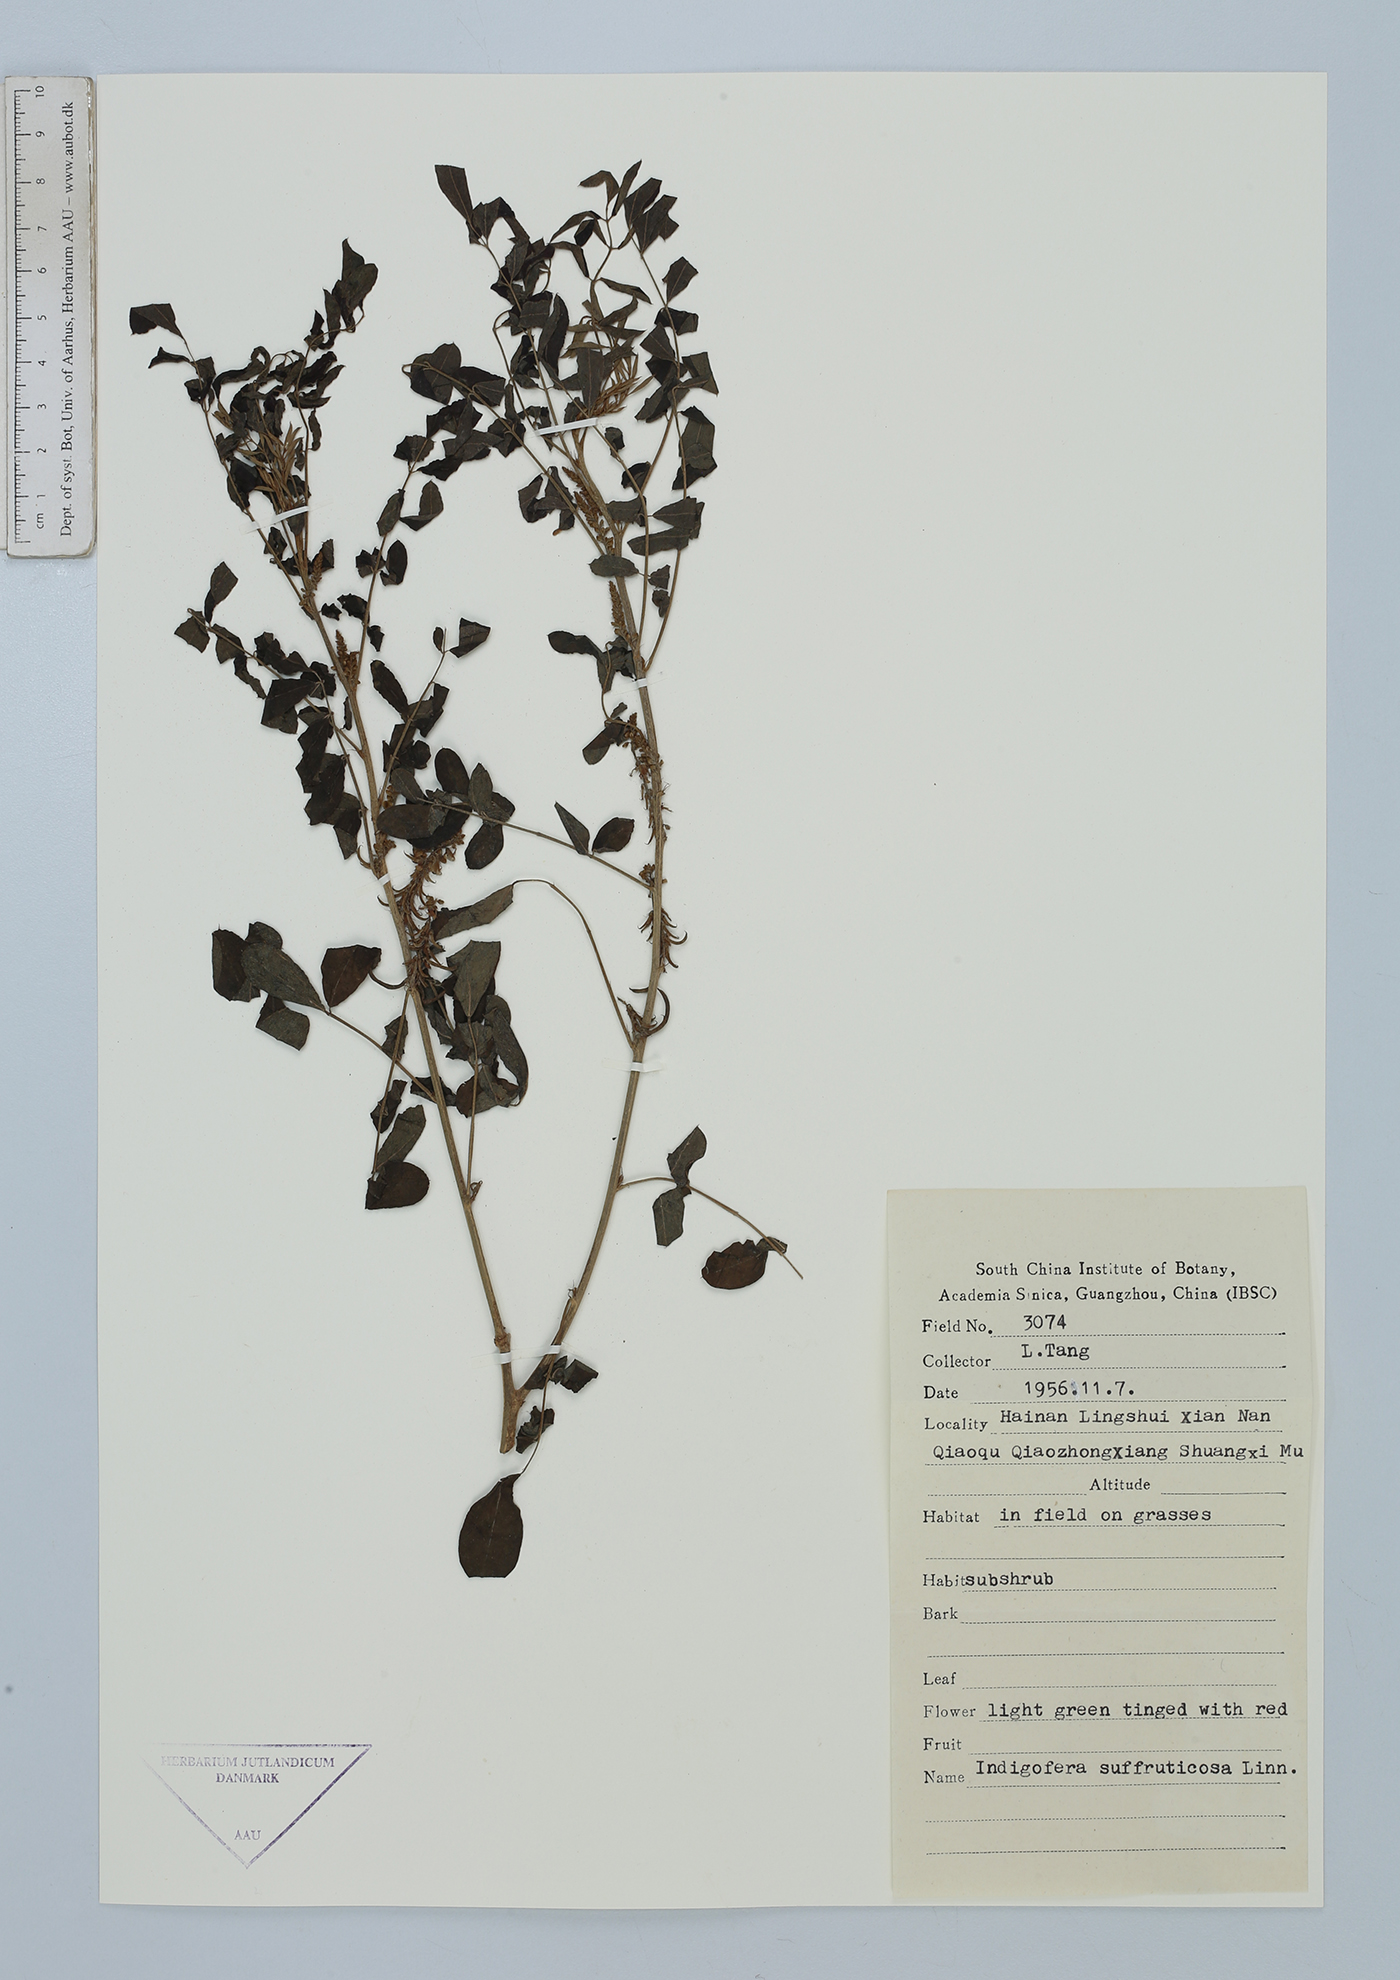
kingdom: Plantae
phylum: Tracheophyta
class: Magnoliopsida
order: Fabales
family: Fabaceae
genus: Indigofera
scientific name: Indigofera suffruticosa
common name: Anil de pasto
